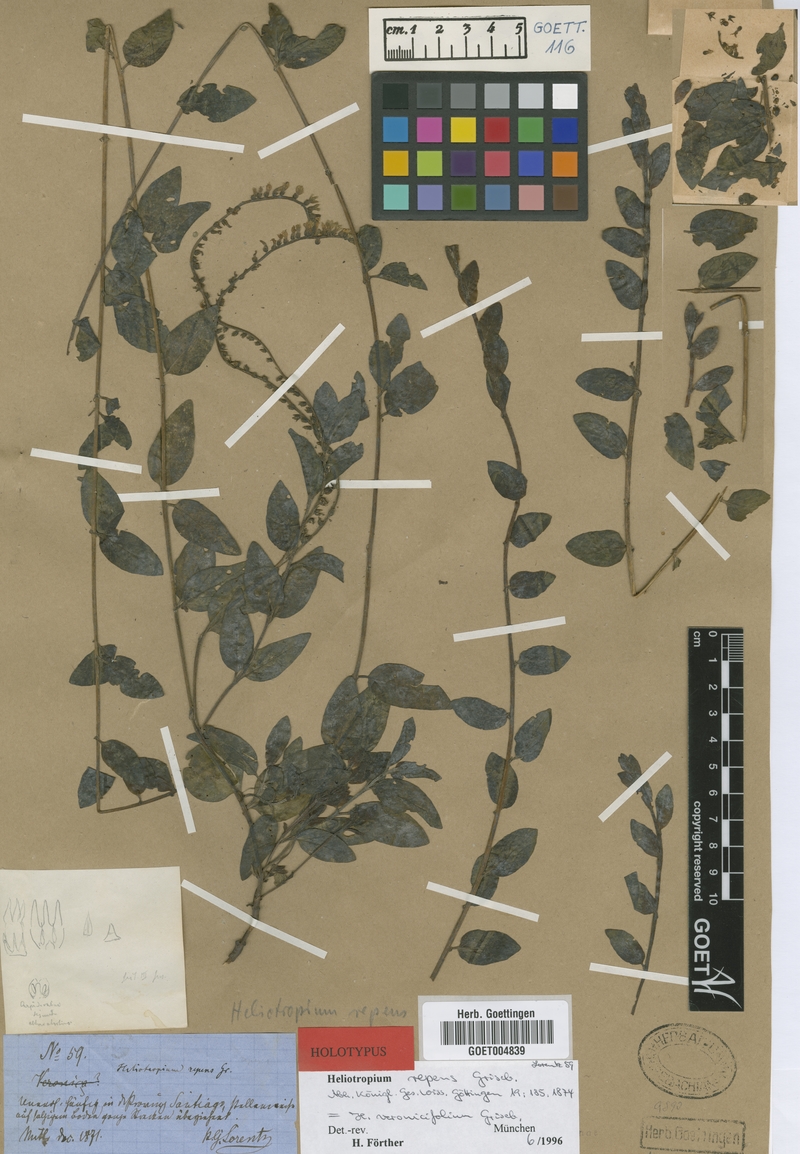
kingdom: Plantae
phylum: Tracheophyta
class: Magnoliopsida
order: Boraginales
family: Heliotropiaceae
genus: Heliotropium
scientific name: Heliotropium veronicifolium
